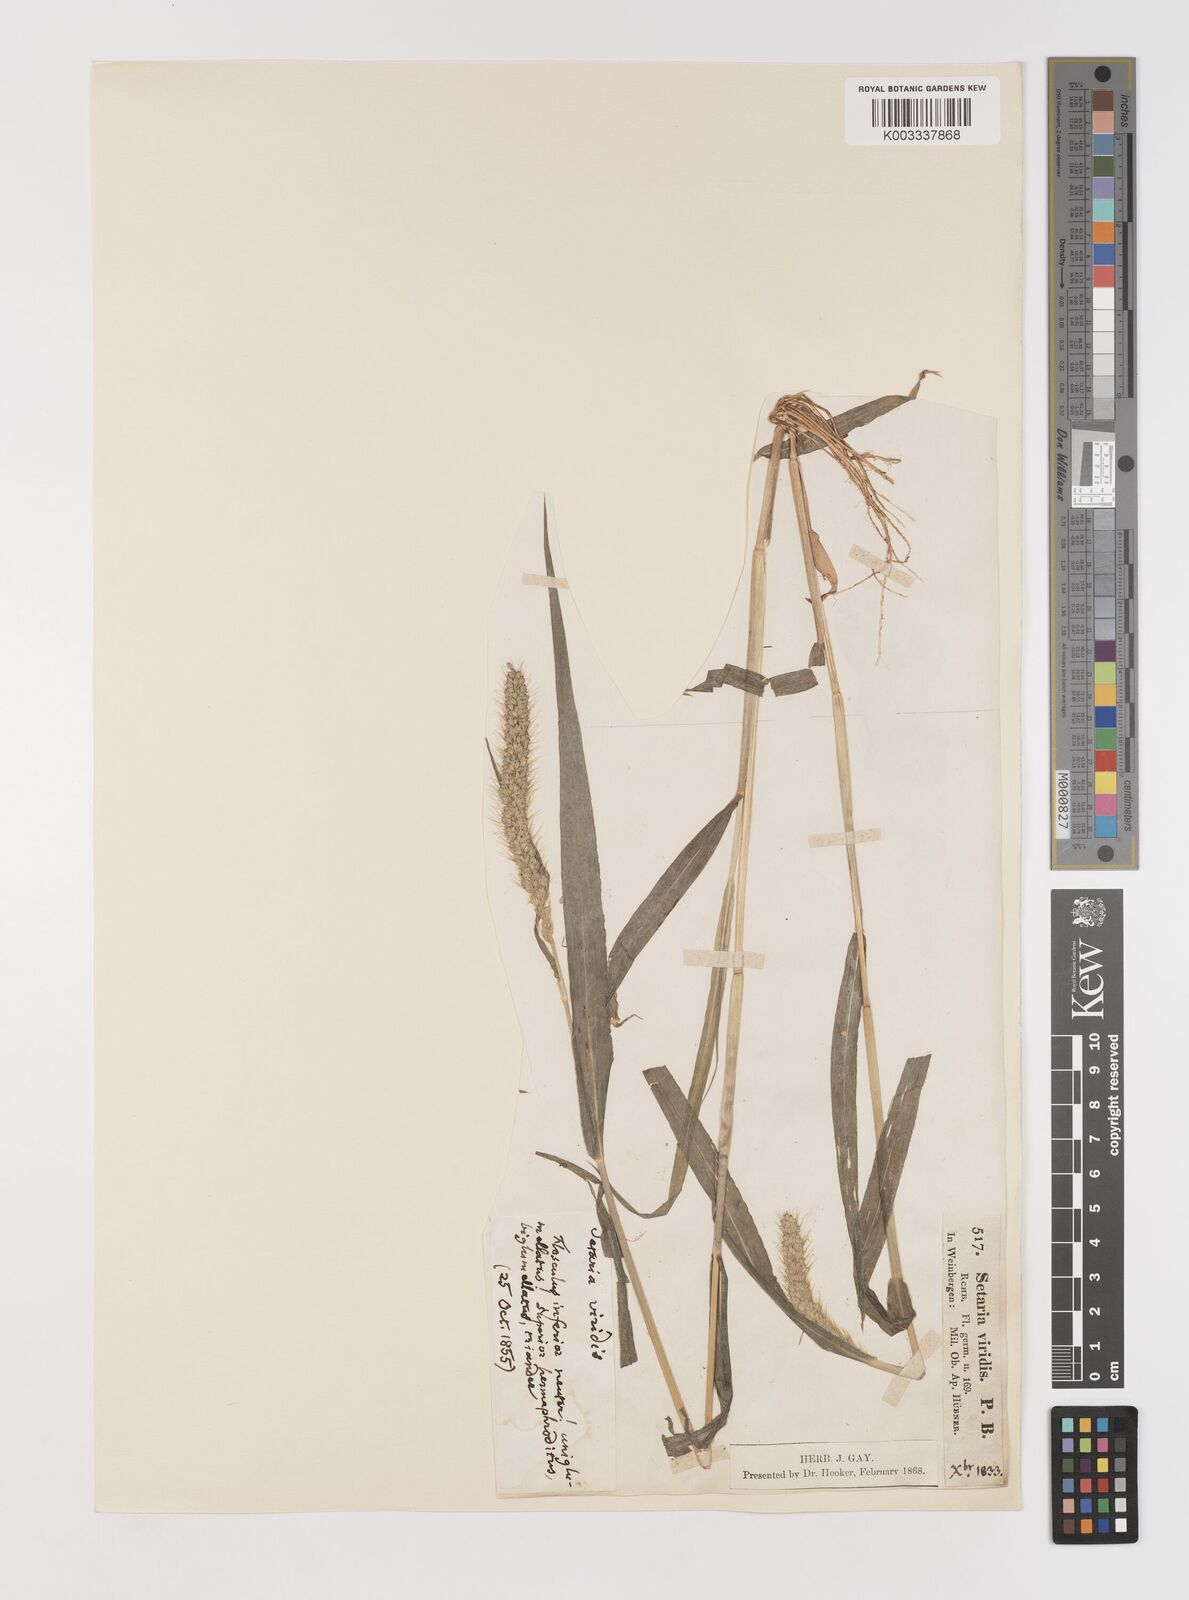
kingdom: Plantae
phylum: Tracheophyta
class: Liliopsida
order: Poales
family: Poaceae
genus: Setaria
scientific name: Setaria viridis
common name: Green bristlegrass
